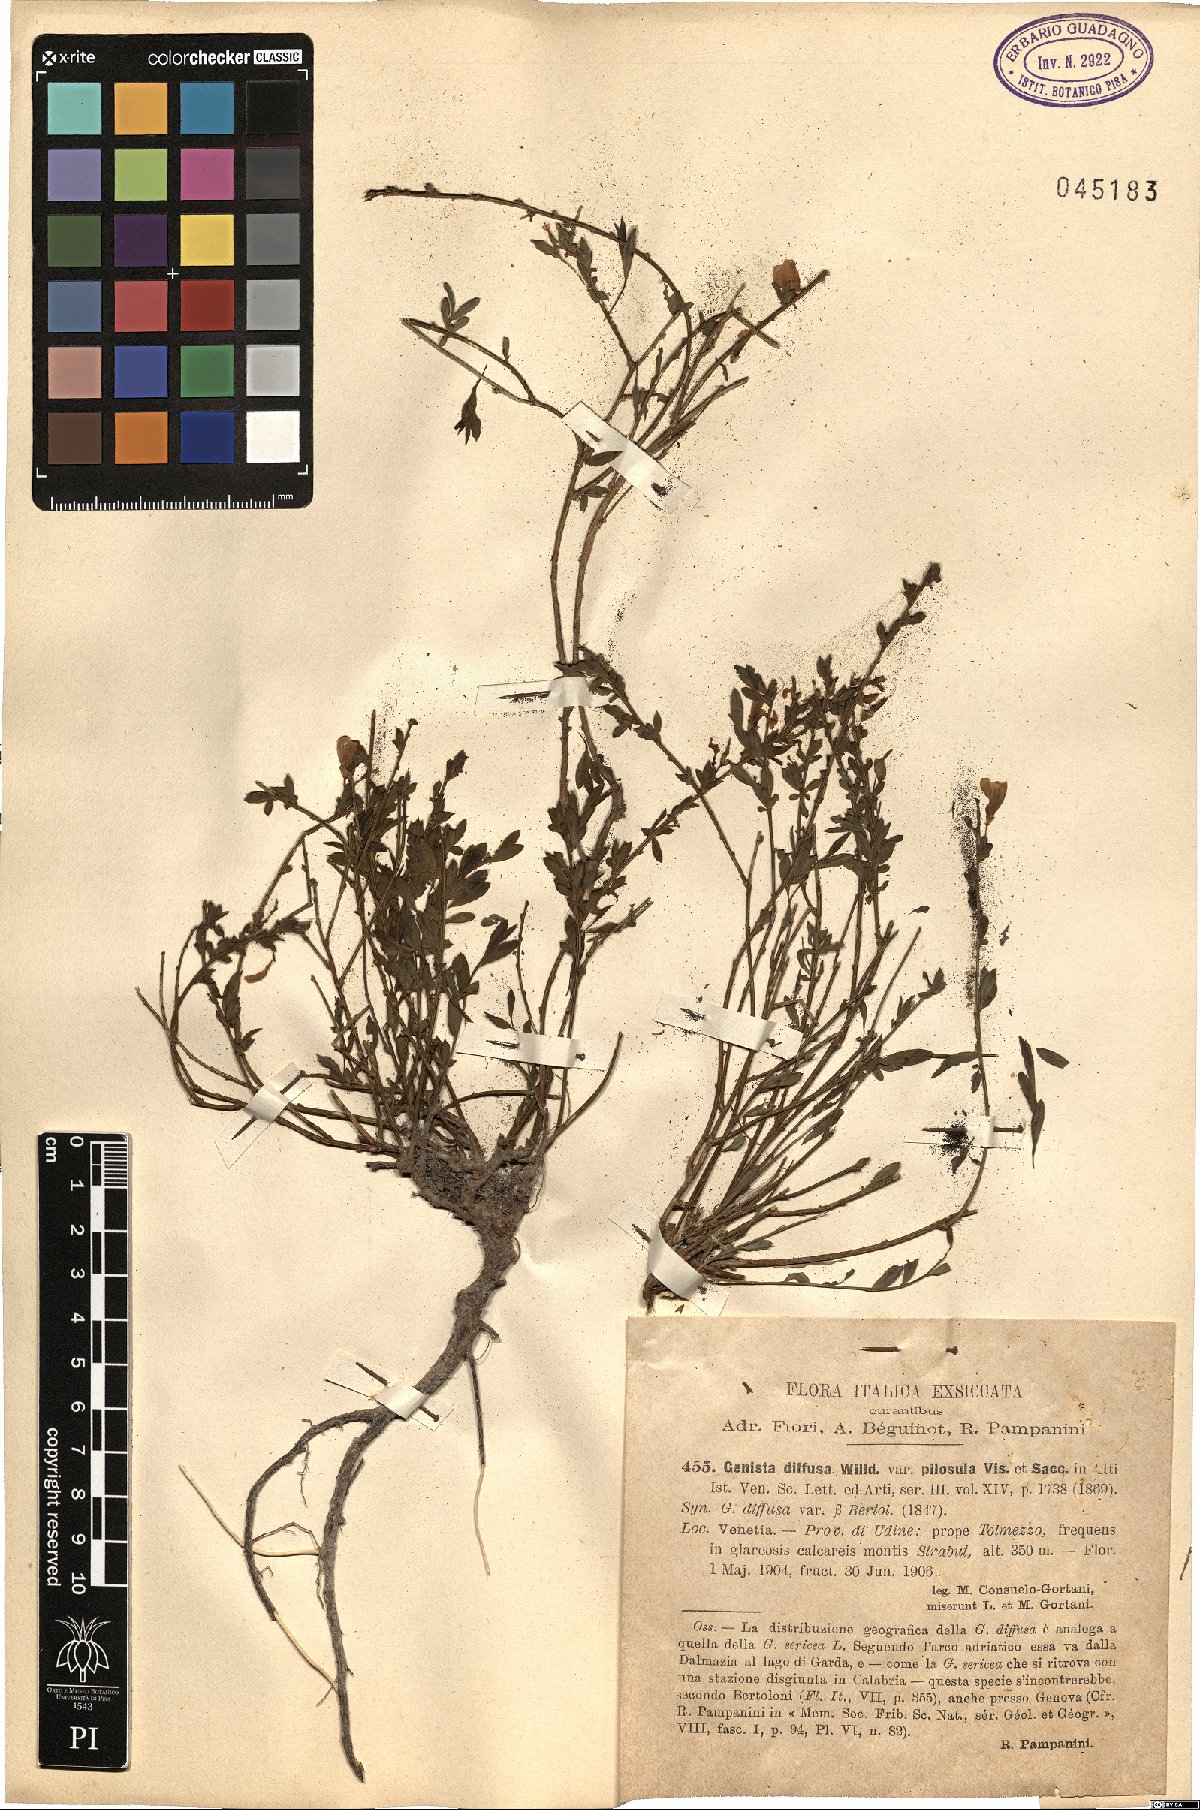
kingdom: Plantae
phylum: Tracheophyta
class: Magnoliopsida
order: Fabales
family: Fabaceae
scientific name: Fabaceae
